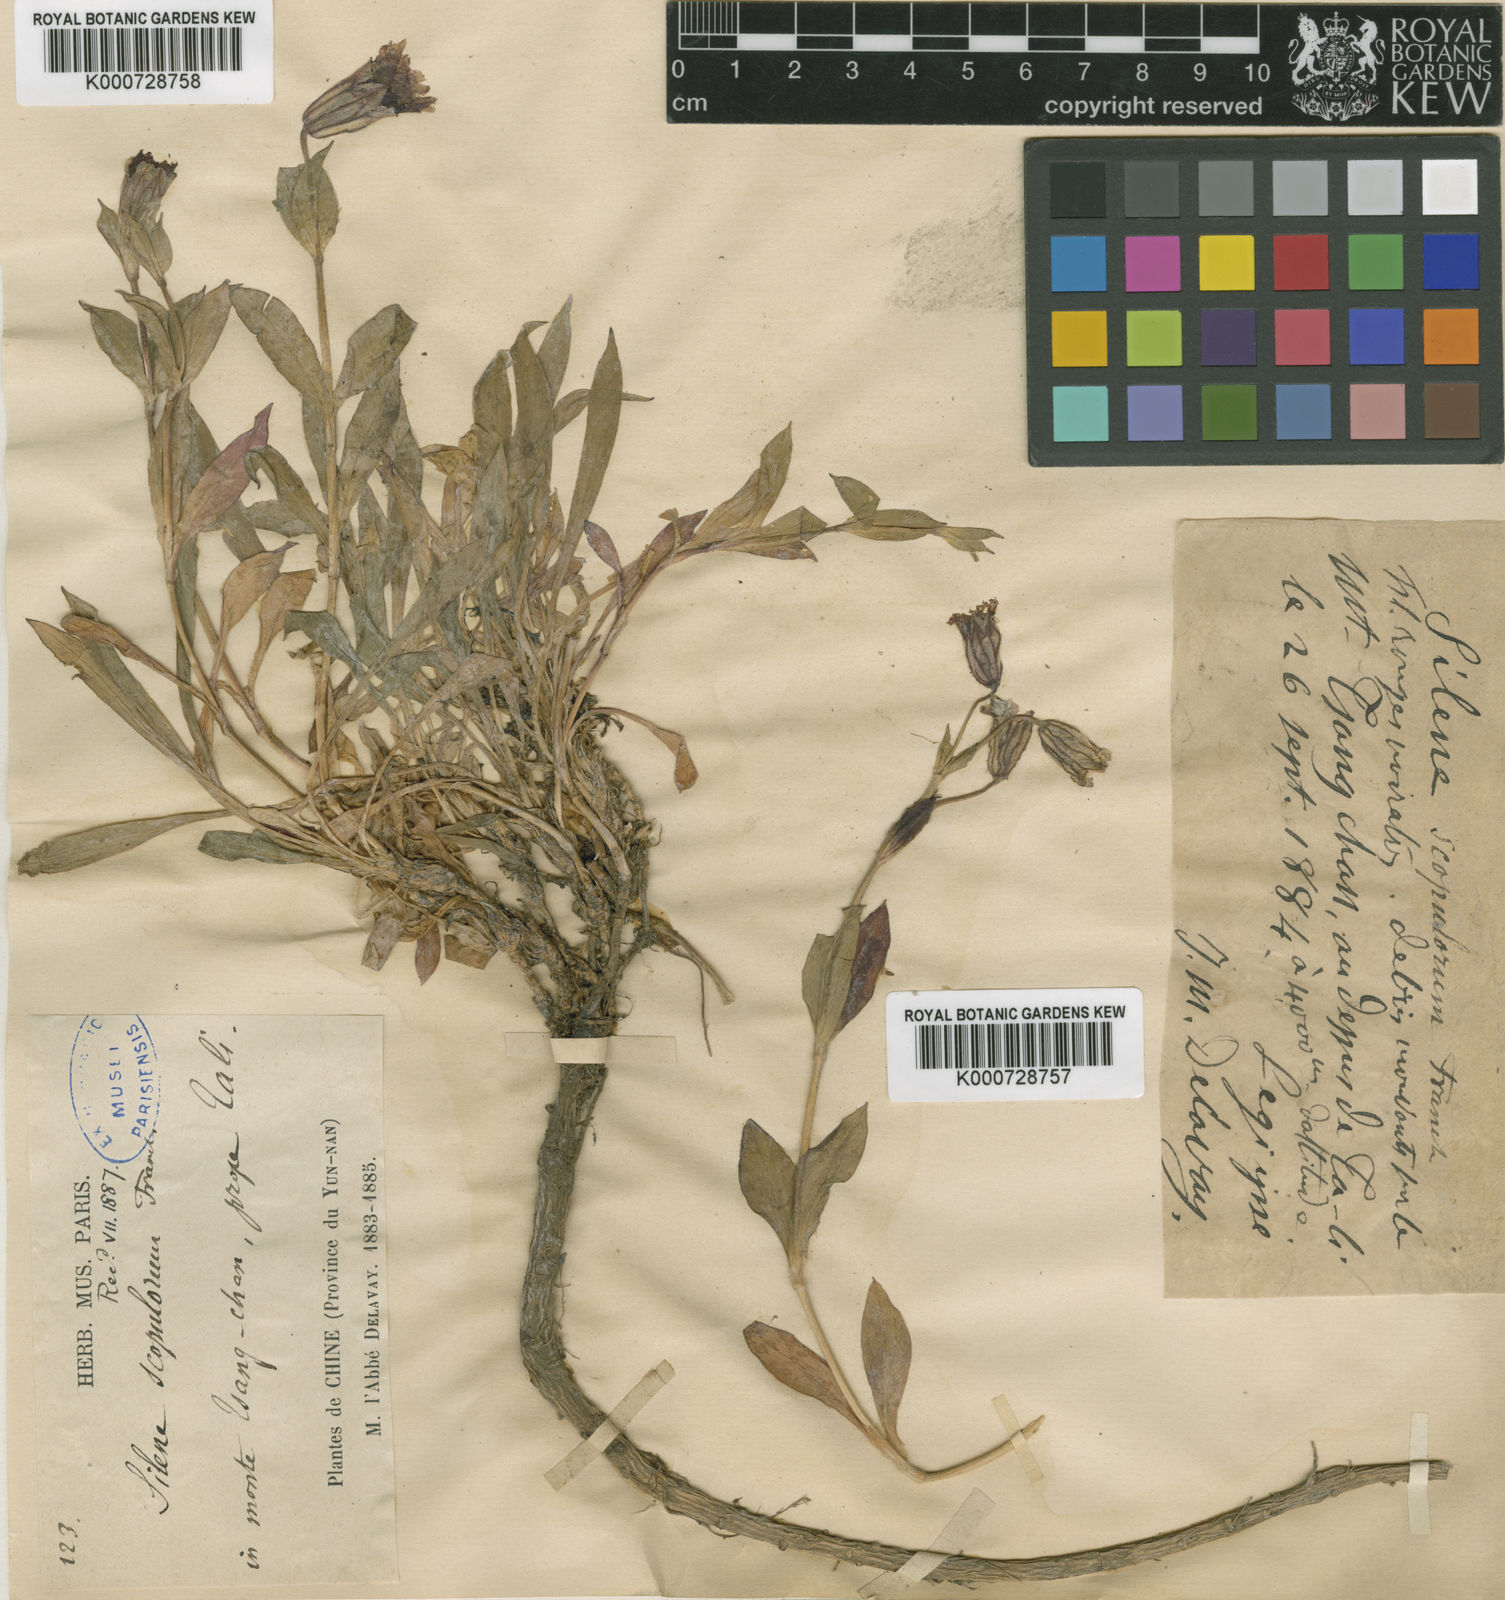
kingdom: Plantae
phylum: Tracheophyta
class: Magnoliopsida
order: Caryophyllales
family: Caryophyllaceae
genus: Silene
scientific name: Silene scopulorum
